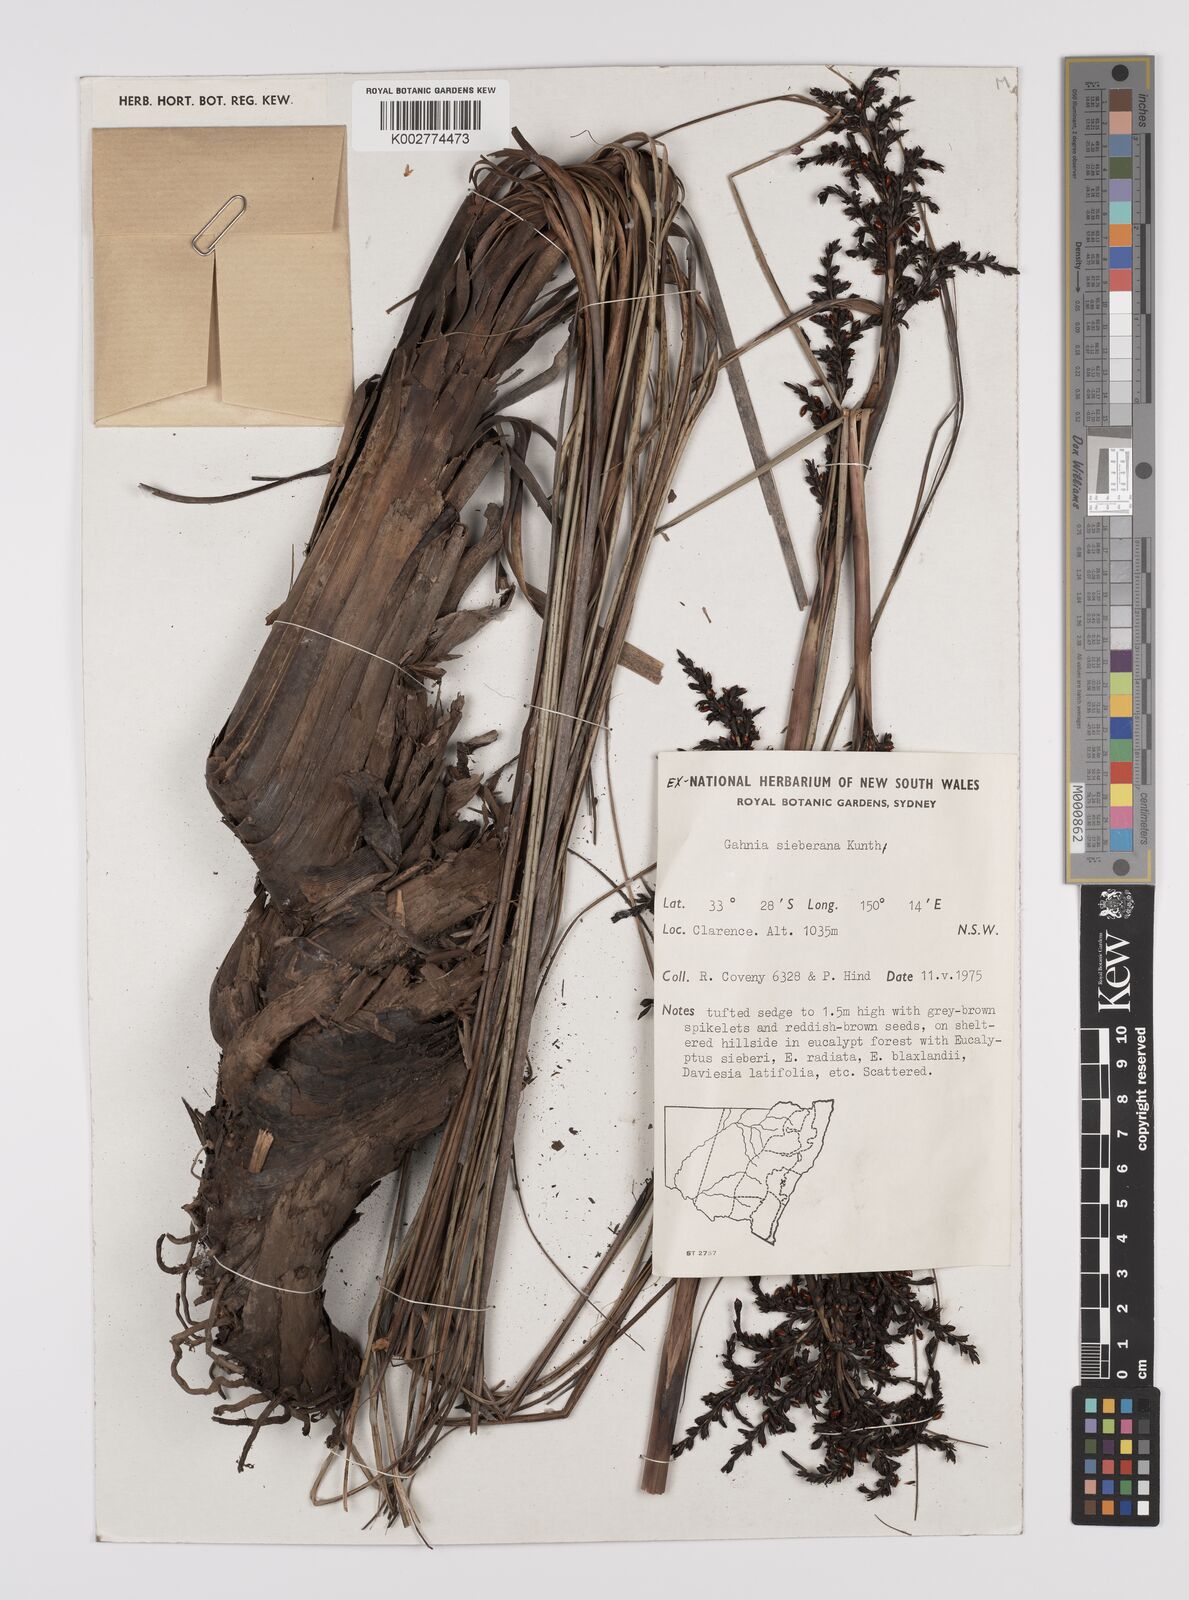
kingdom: Plantae
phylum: Tracheophyta
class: Liliopsida
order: Poales
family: Cyperaceae
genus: Gahnia
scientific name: Gahnia sieberiana
